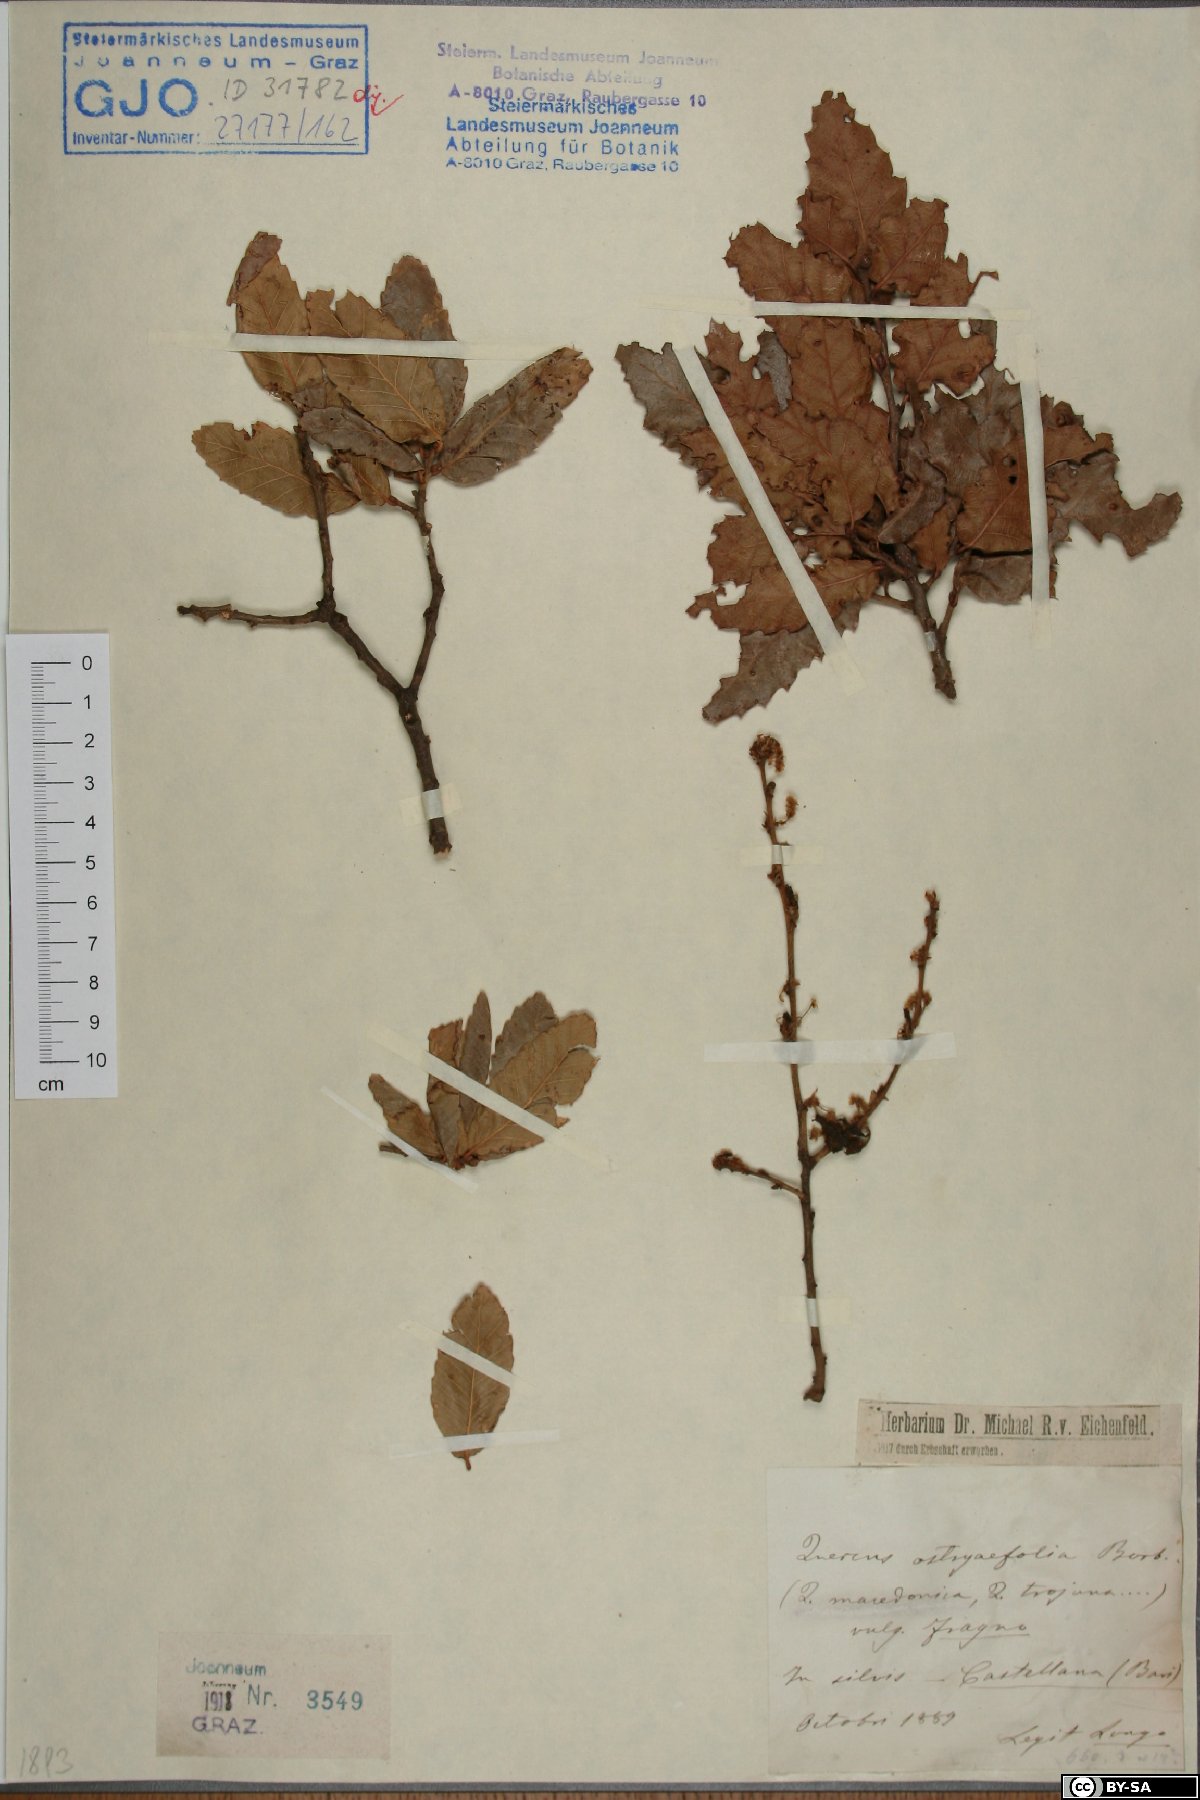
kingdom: Plantae
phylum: Tracheophyta
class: Magnoliopsida
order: Fagales
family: Fagaceae
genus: Quercus
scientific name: Quercus trojana
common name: Macedonian oak
